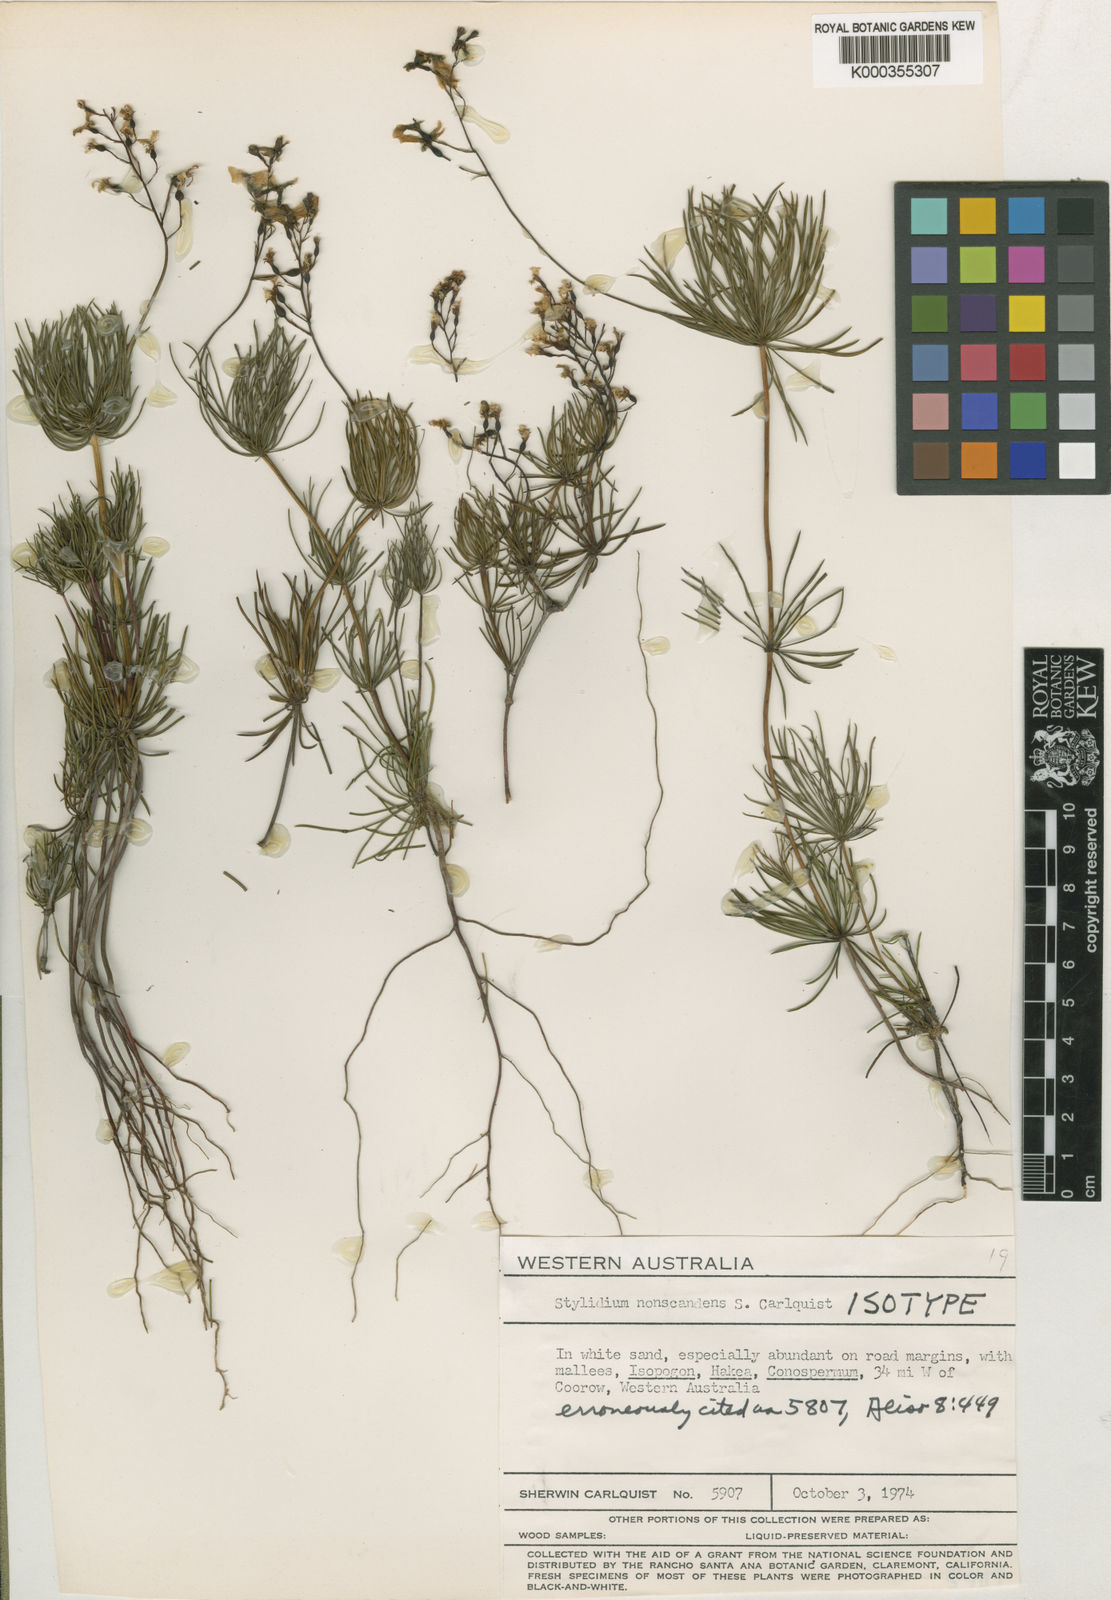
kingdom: Plantae
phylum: Tracheophyta
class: Magnoliopsida
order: Asterales
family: Stylidiaceae
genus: Stylidium
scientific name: Stylidium nonscandens
